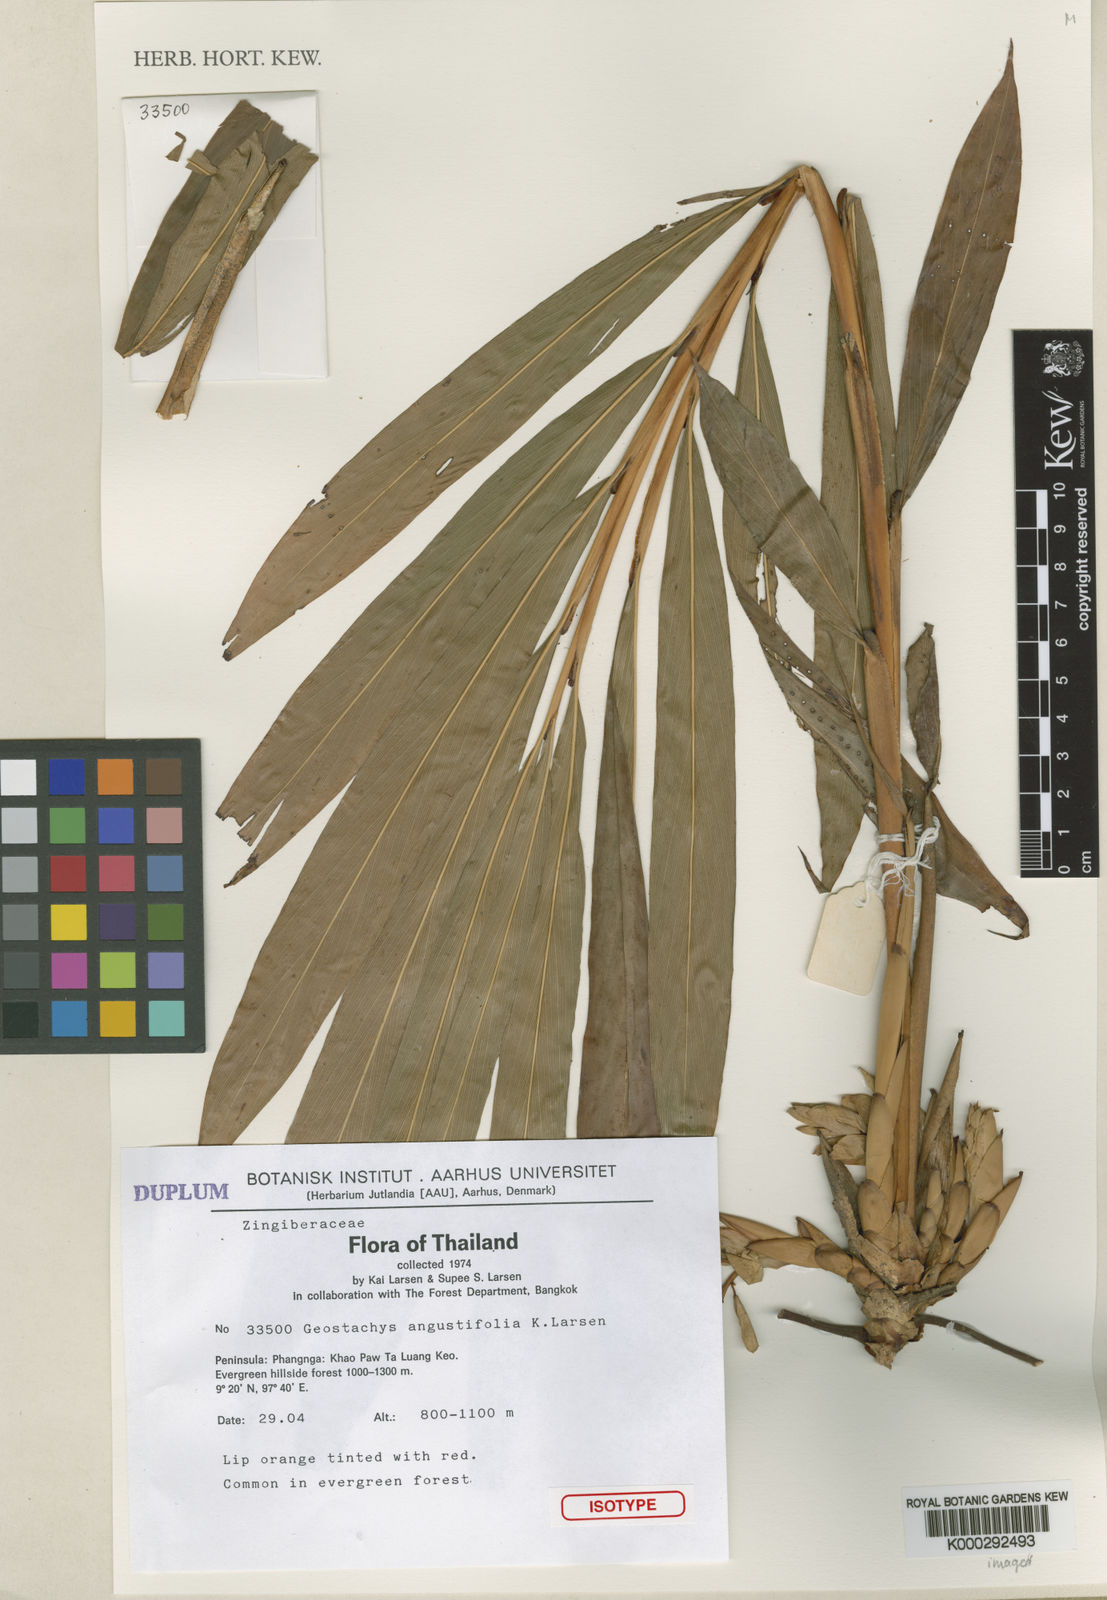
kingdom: Plantae
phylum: Tracheophyta
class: Liliopsida
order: Zingiberales
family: Zingiberaceae
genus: Geostachys
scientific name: Geostachys angustifolia
